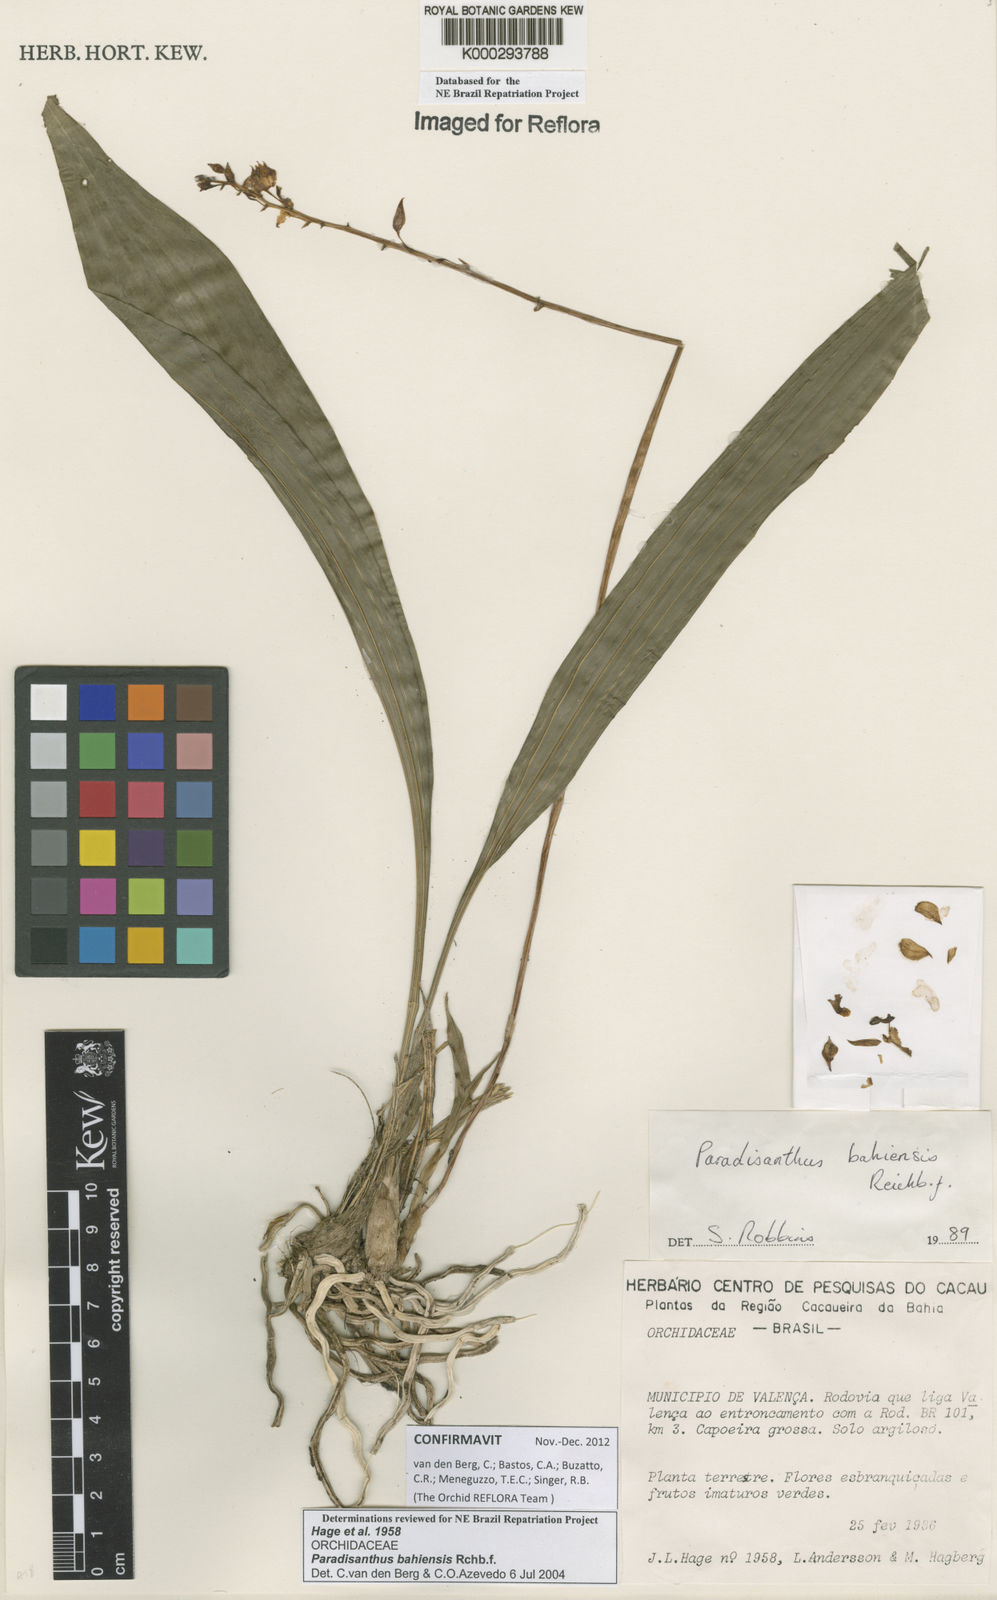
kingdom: Plantae
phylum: Tracheophyta
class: Liliopsida
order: Asparagales
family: Orchidaceae
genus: Paradisanthus
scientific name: Paradisanthus bahiensis
